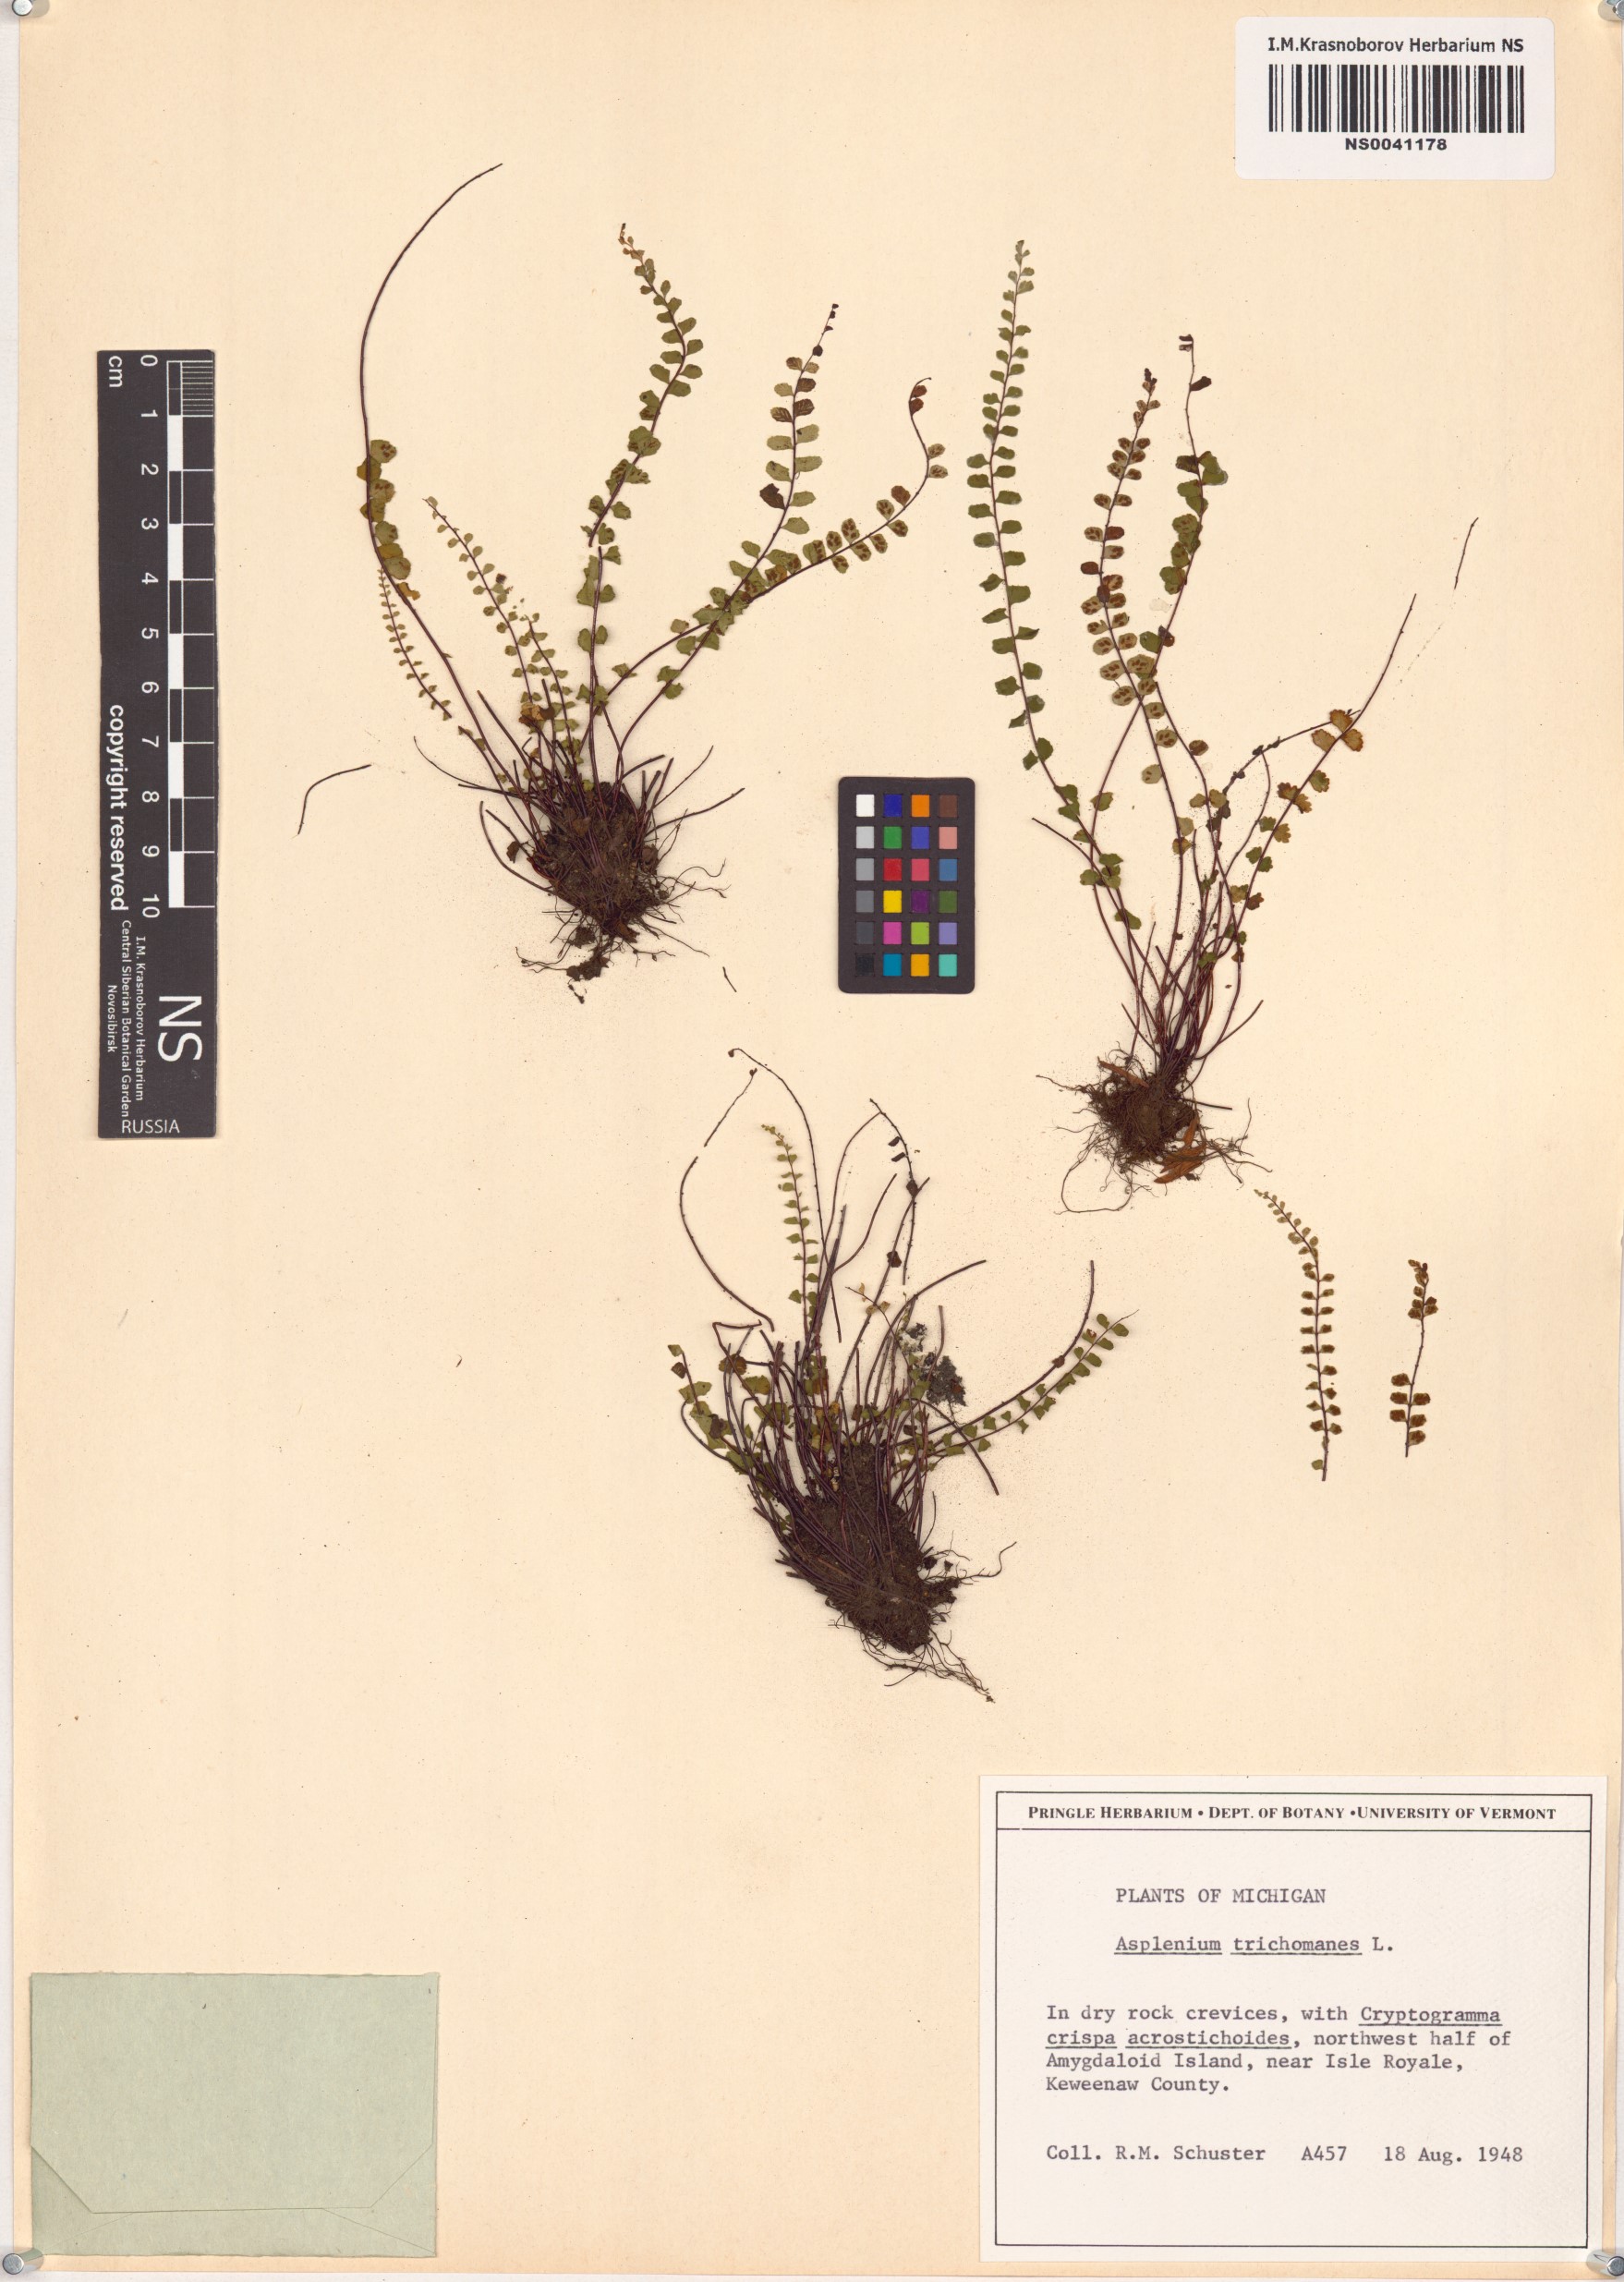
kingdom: Plantae
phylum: Tracheophyta
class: Polypodiopsida
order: Polypodiales
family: Aspleniaceae
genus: Asplenium
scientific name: Asplenium trichomanes
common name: Maidenhair spleenwort
